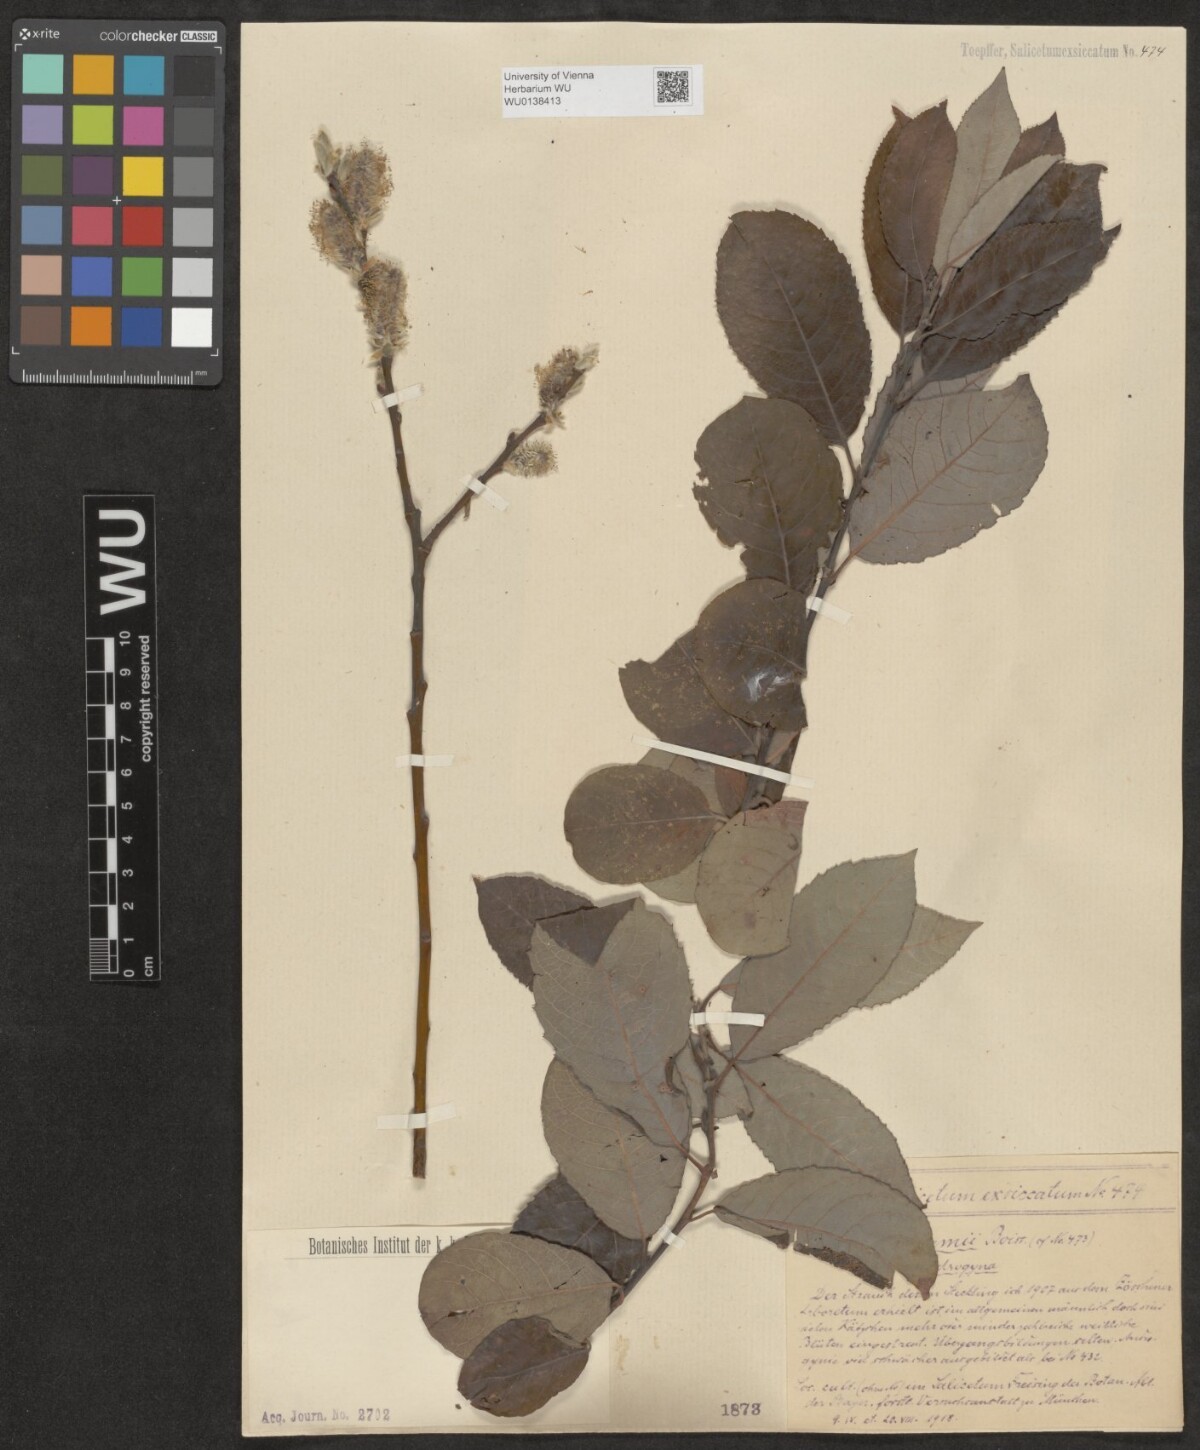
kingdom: Plantae
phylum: Tracheophyta
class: Magnoliopsida
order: Malpighiales
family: Salicaceae
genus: Salix
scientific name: Salix aegyptiaca
